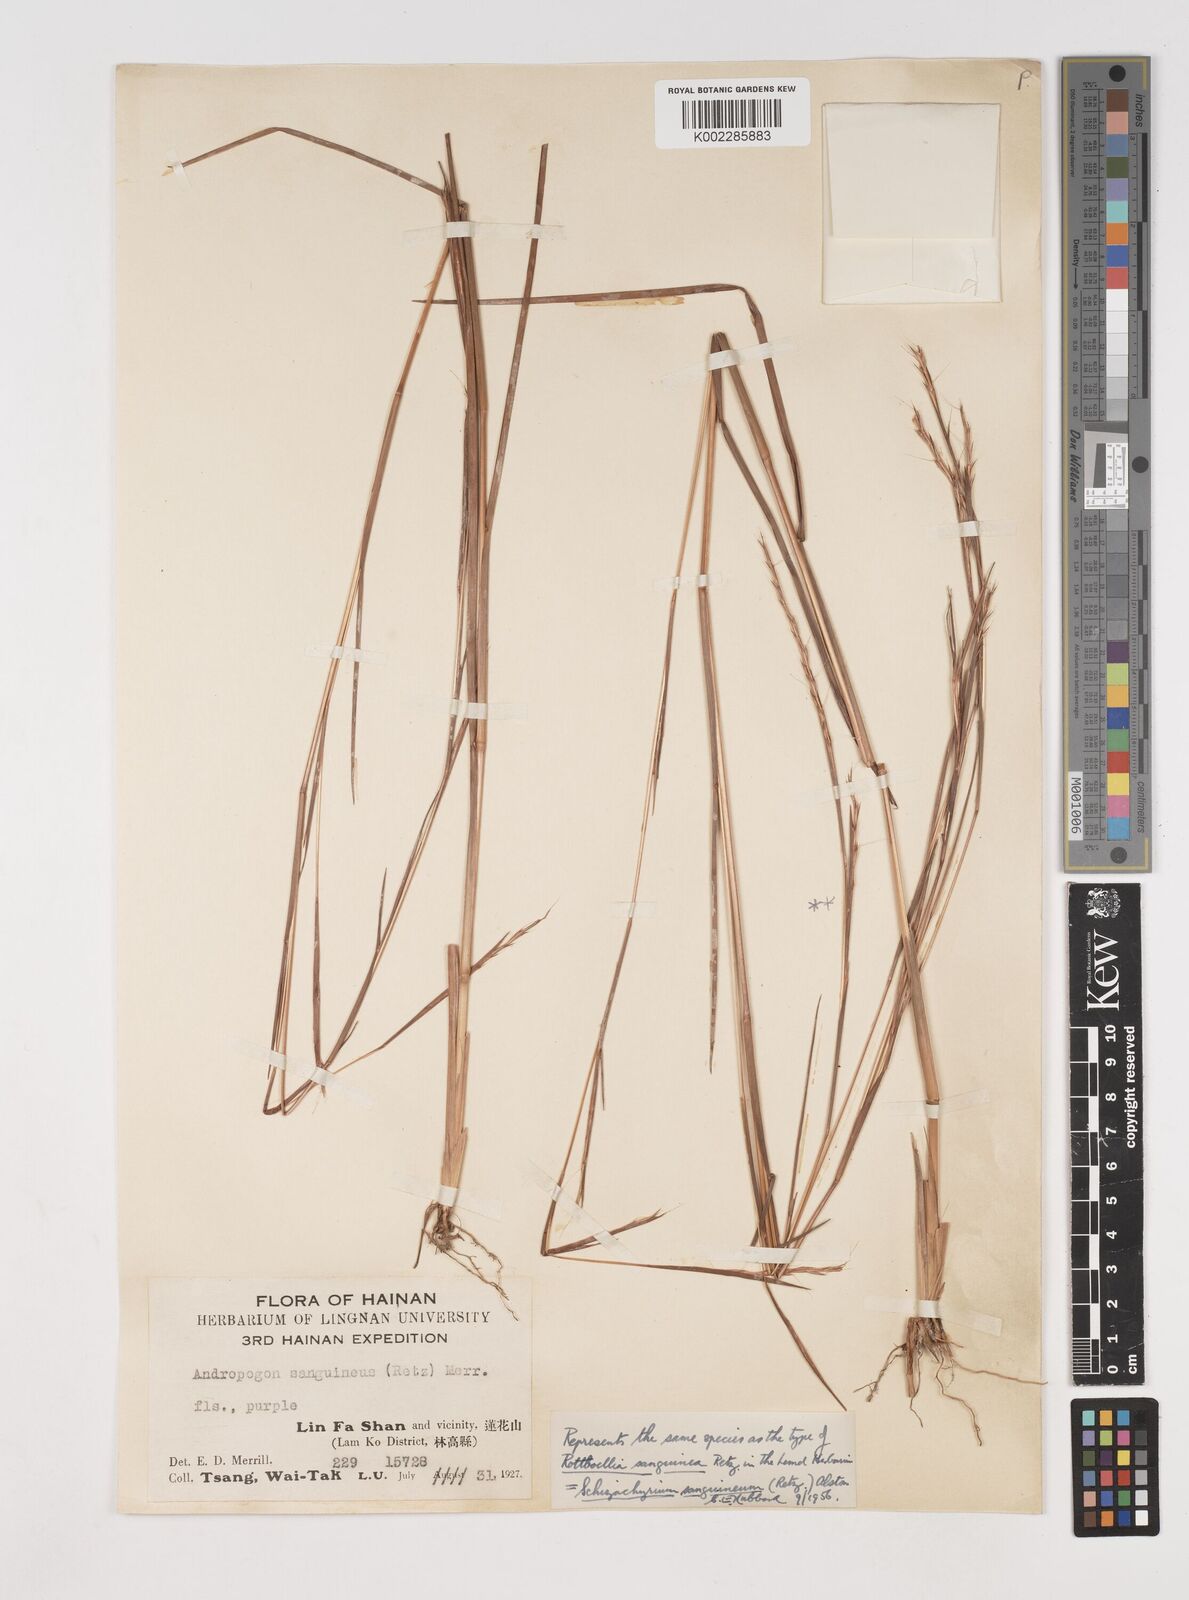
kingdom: Plantae
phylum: Tracheophyta
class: Liliopsida
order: Poales
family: Poaceae
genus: Schizachyrium
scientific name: Schizachyrium sanguineum
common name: Crimson bluestem
